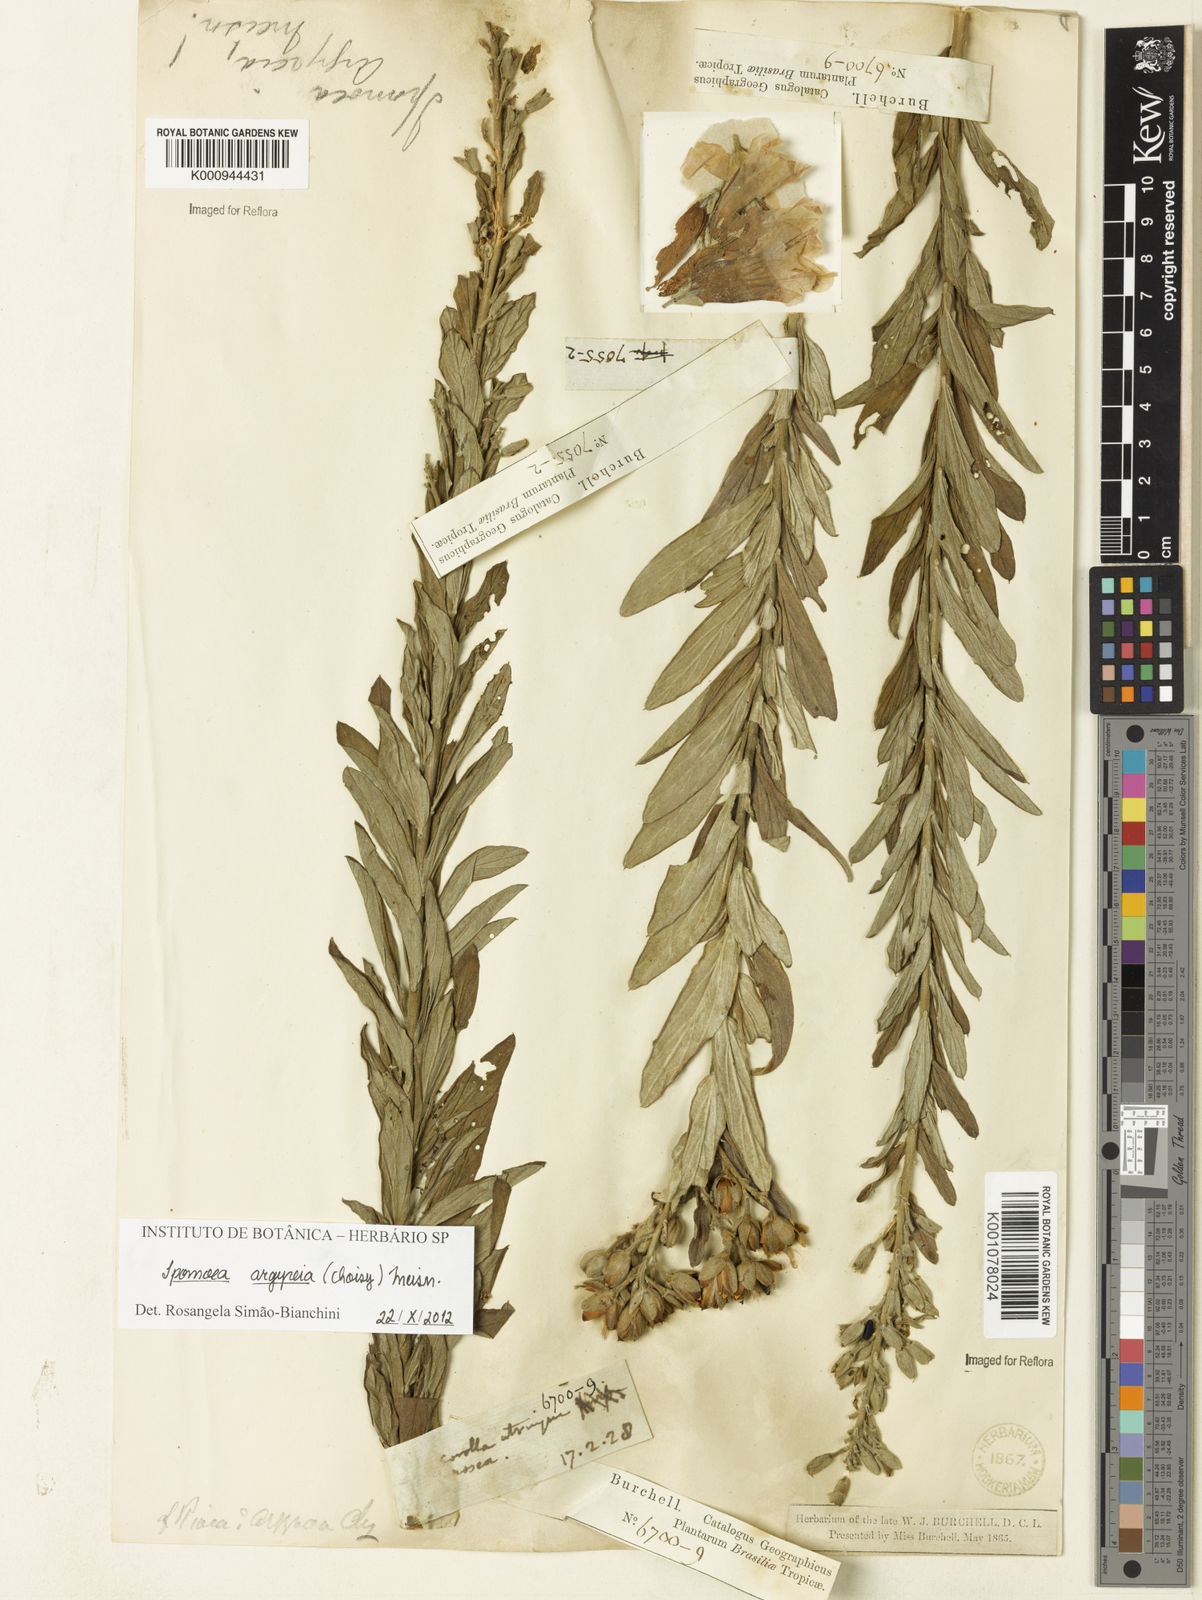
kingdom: Plantae
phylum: Tracheophyta
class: Magnoliopsida
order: Solanales
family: Convolvulaceae
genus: Ipomoea
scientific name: Ipomoea argyreia
